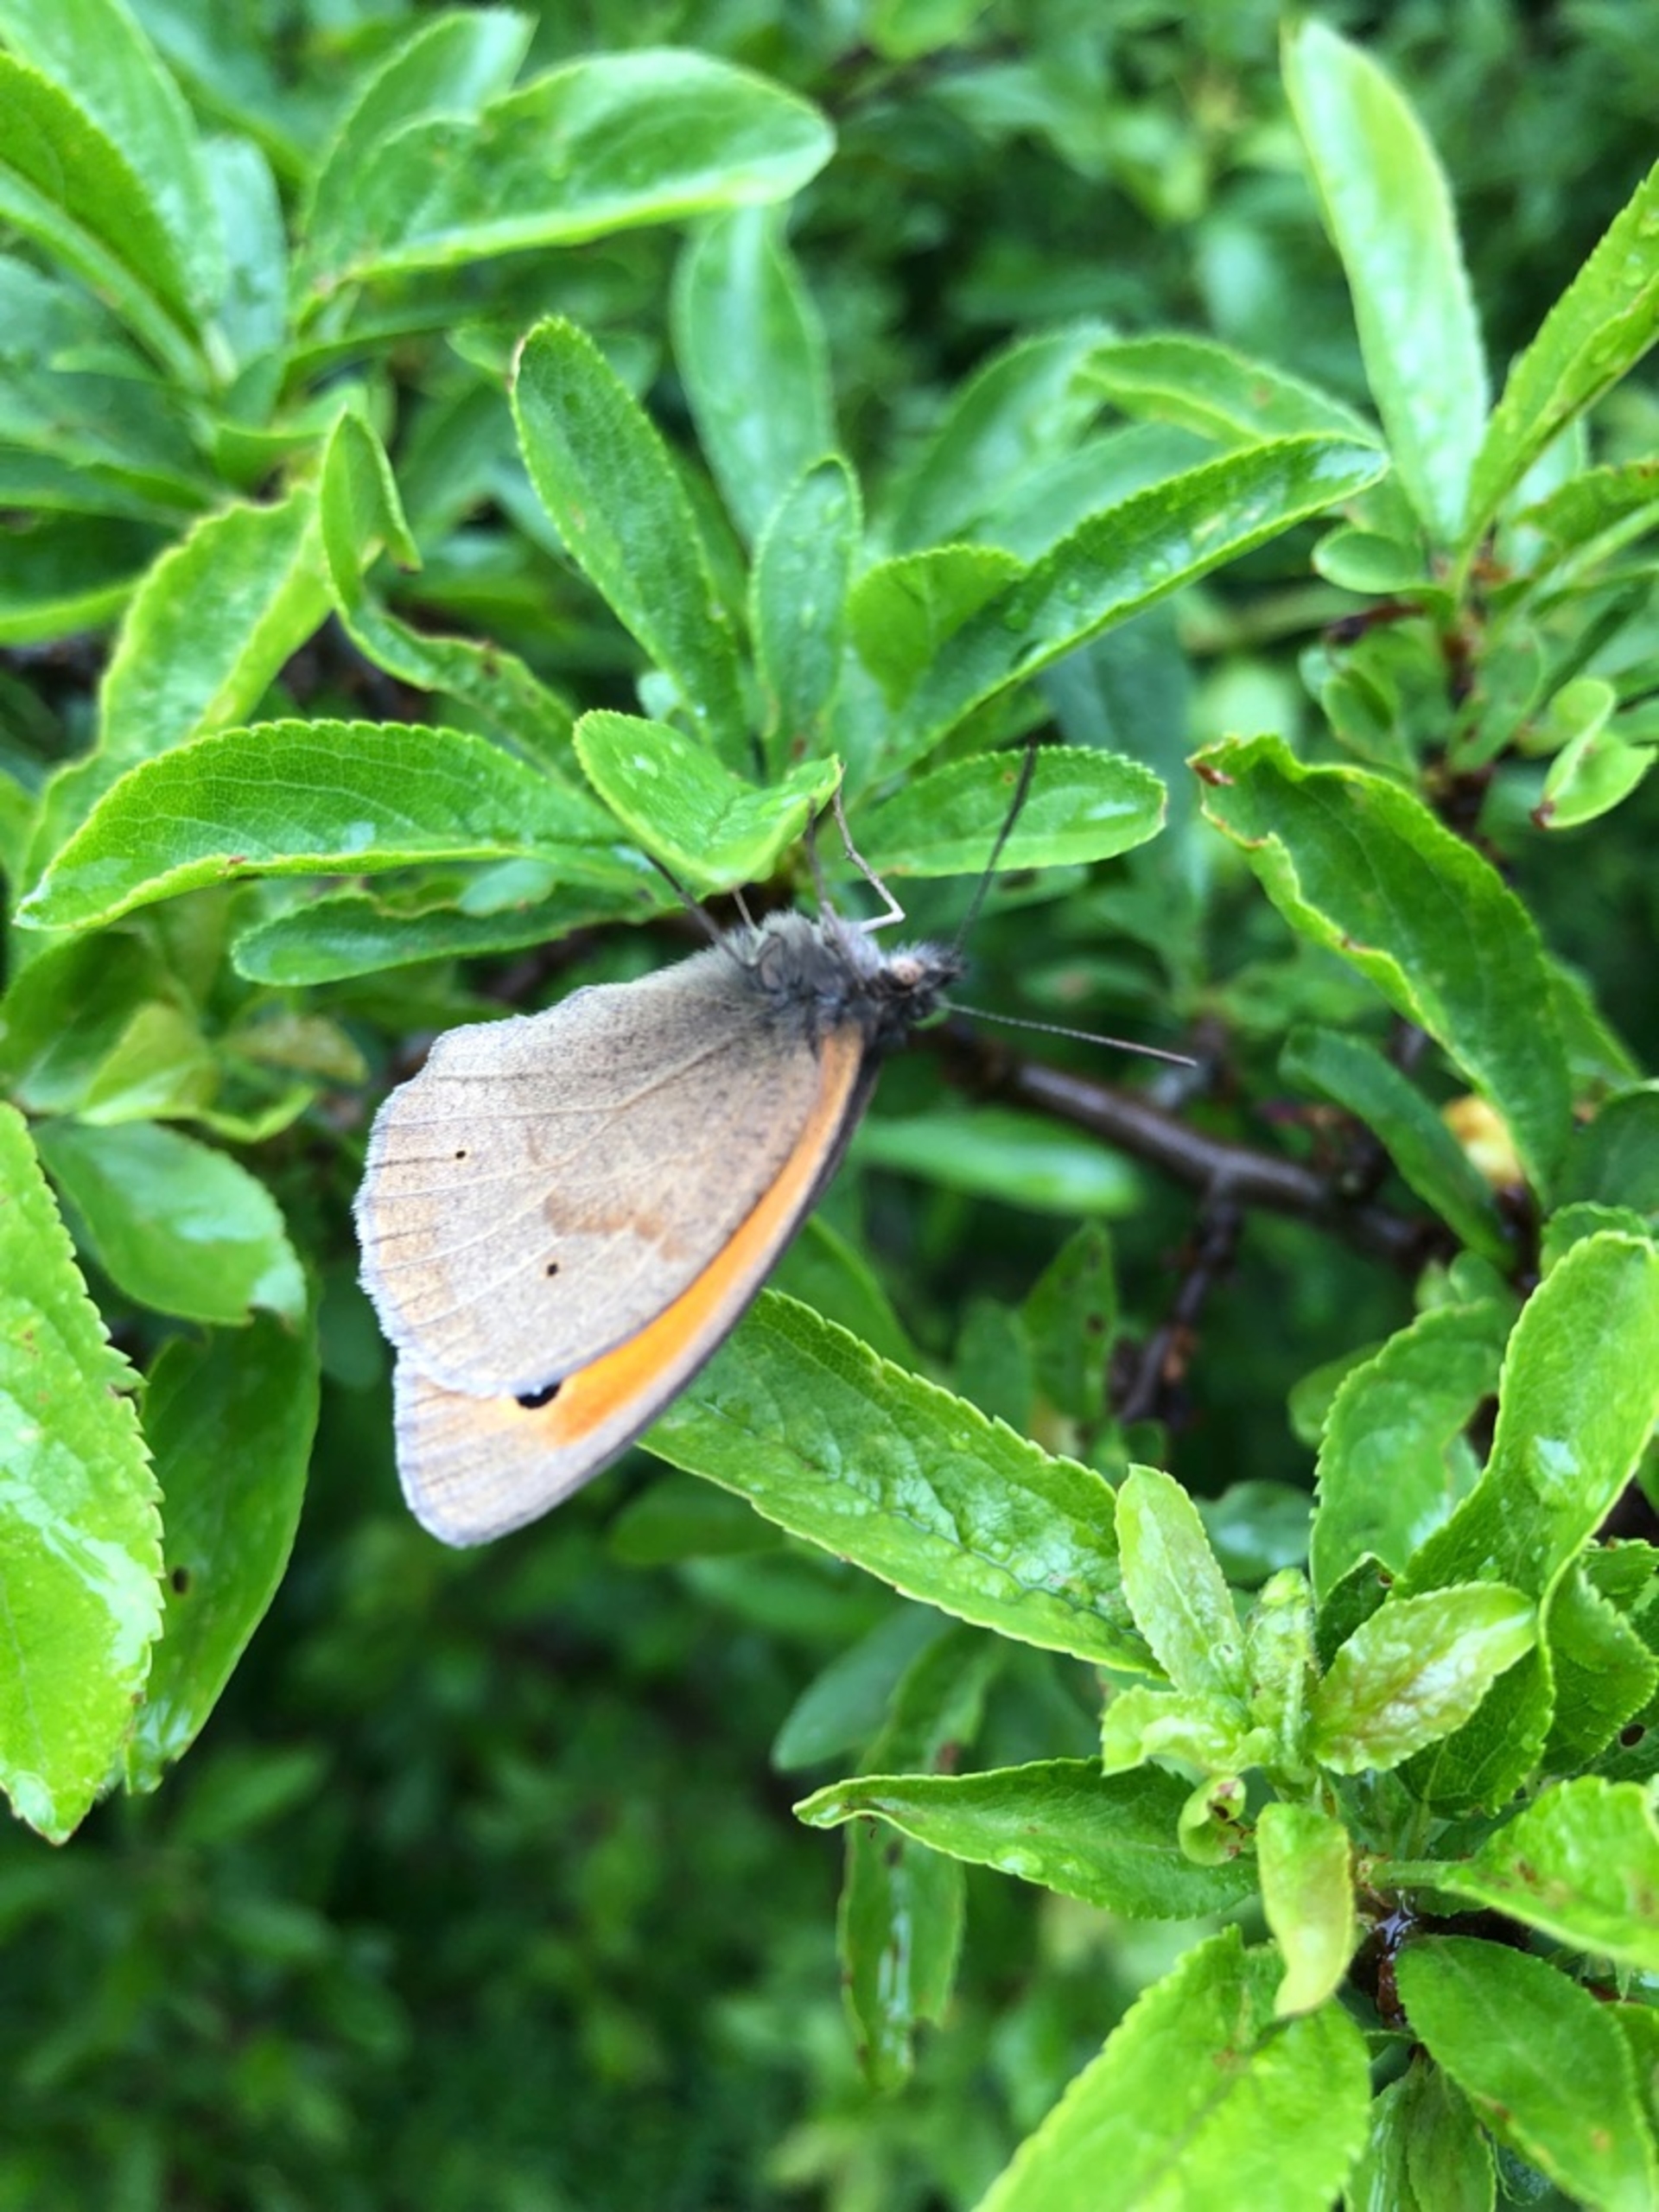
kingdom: Animalia
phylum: Arthropoda
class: Insecta
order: Lepidoptera
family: Nymphalidae
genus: Maniola
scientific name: Maniola jurtina
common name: Græsrandøje
